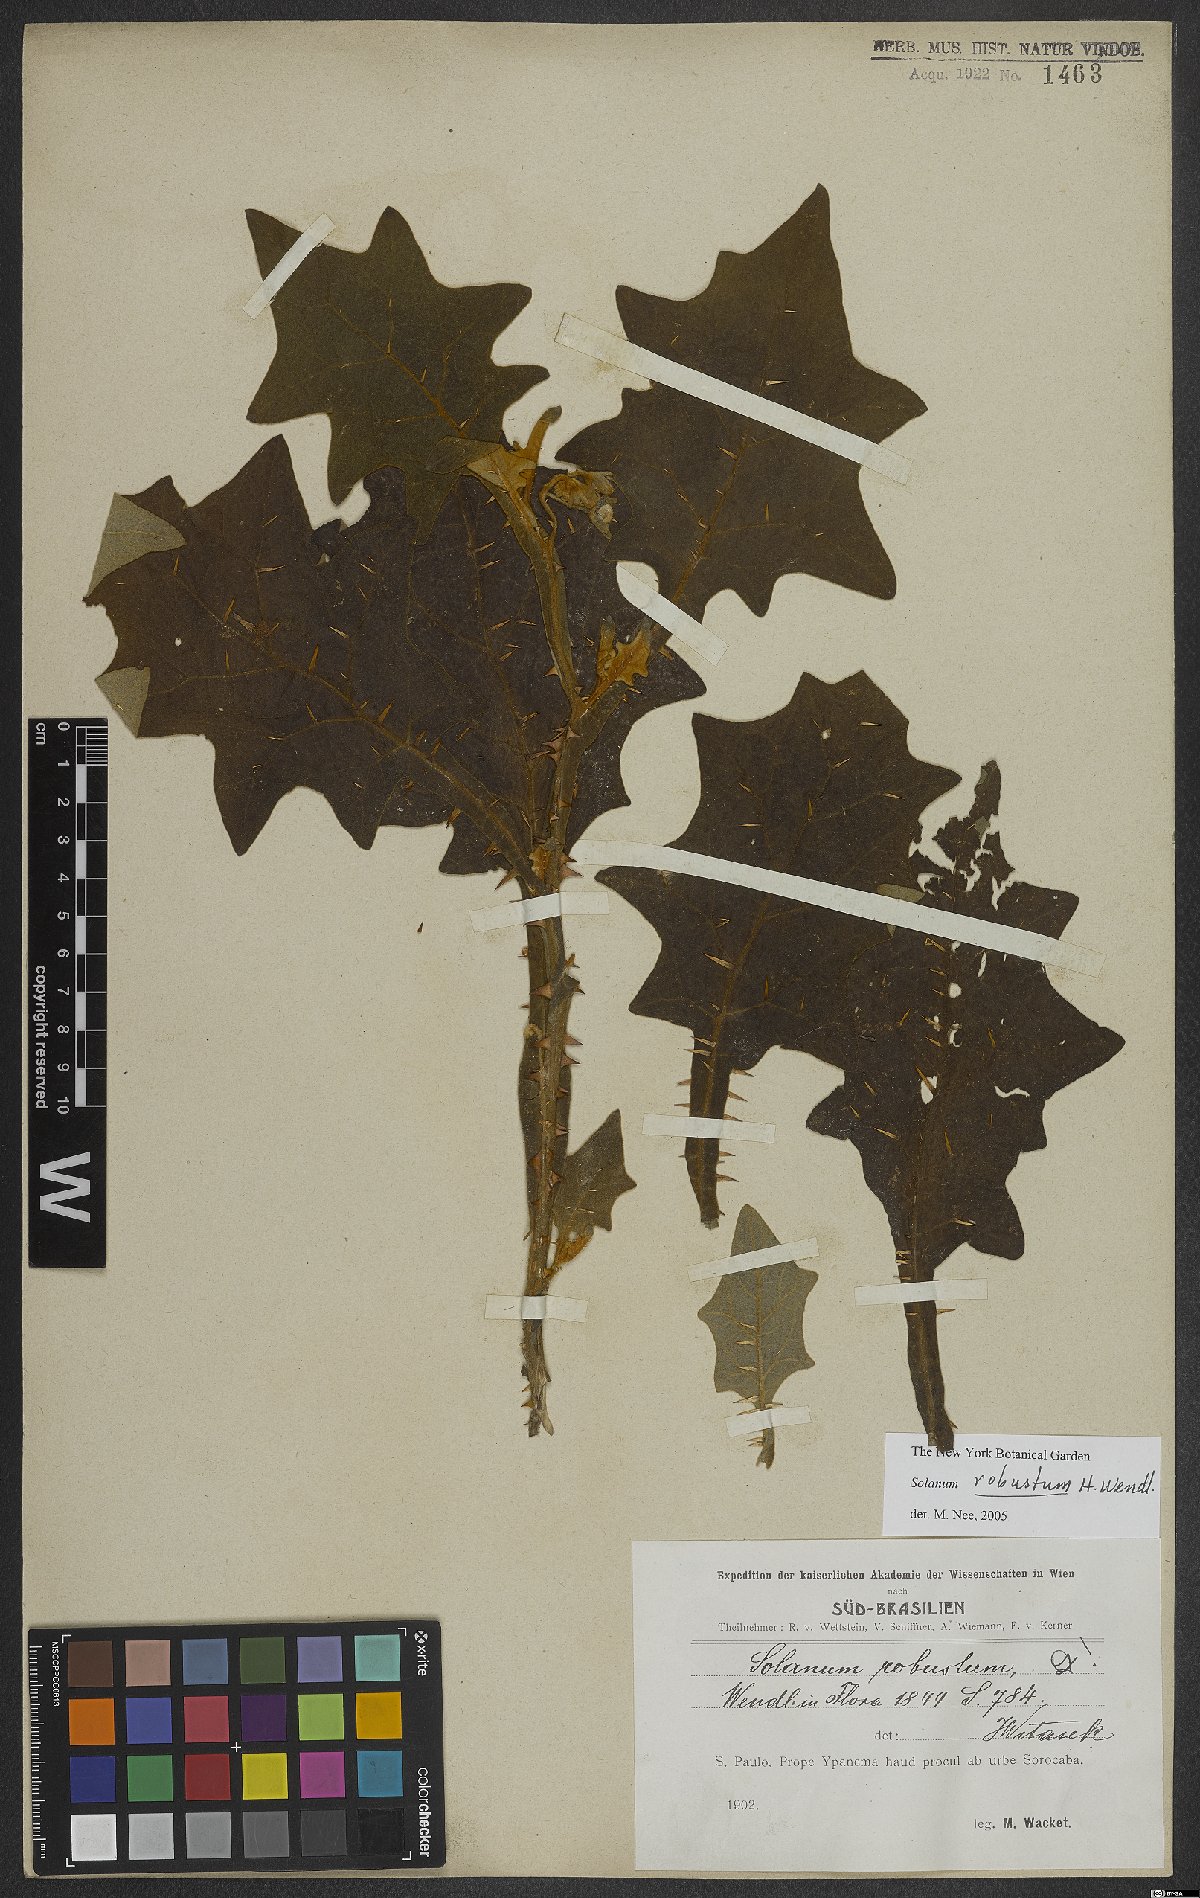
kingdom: Plantae
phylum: Tracheophyta
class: Magnoliopsida
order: Solanales
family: Solanaceae
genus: Solanum
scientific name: Solanum robustum
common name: Shrubby nightshade
